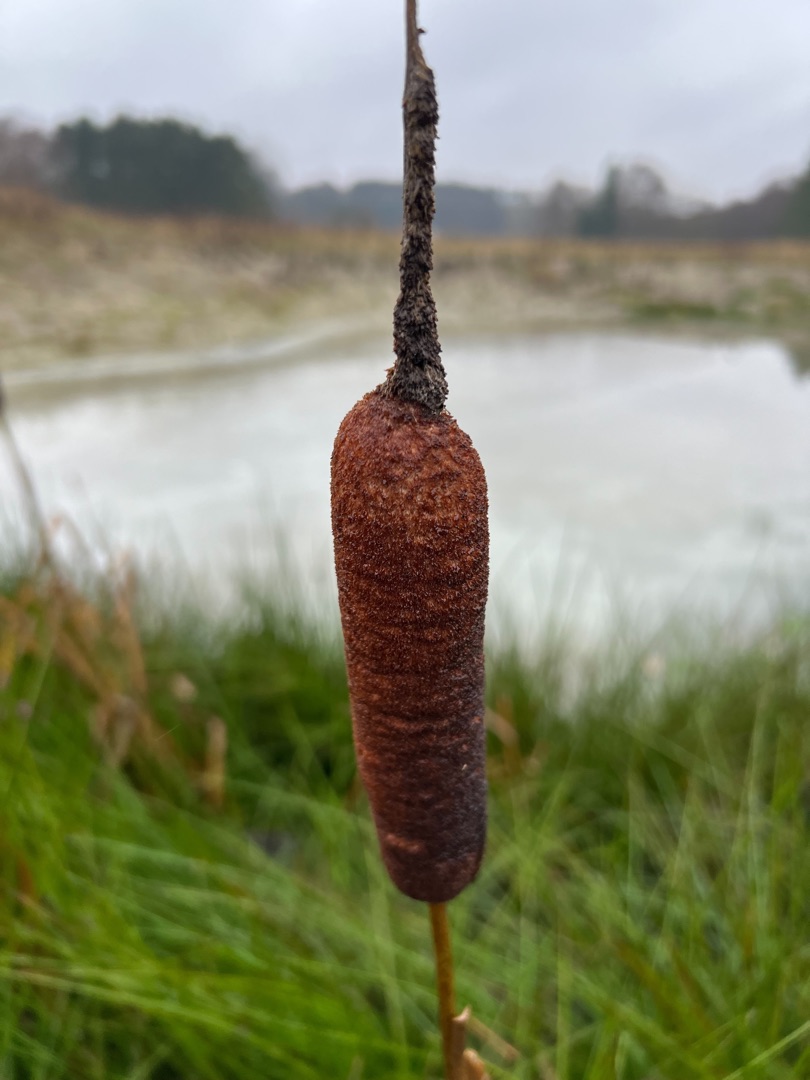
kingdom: Plantae
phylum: Tracheophyta
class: Liliopsida
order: Poales
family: Typhaceae
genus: Typha
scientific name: Typha latifolia
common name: Bredbladet dunhammer
